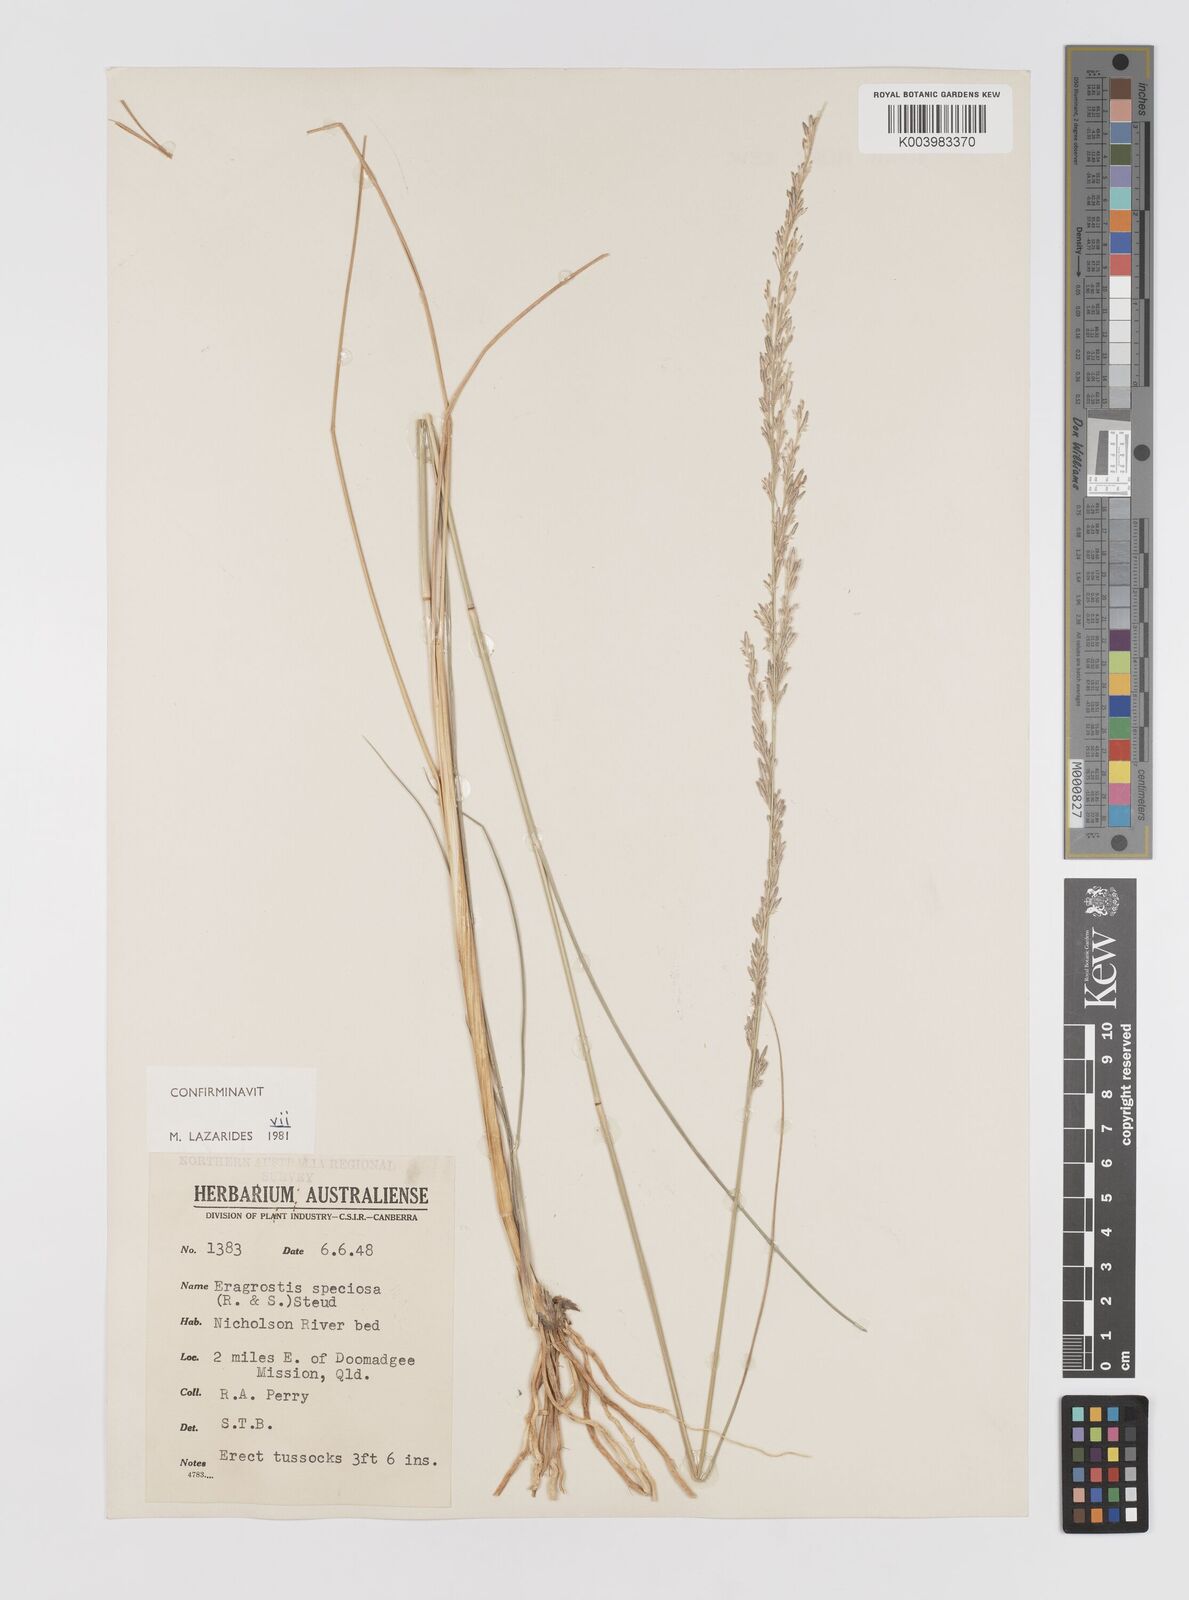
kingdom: Plantae
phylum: Tracheophyta
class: Liliopsida
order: Poales
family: Poaceae
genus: Eragrostis
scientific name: Eragrostis speciosa
